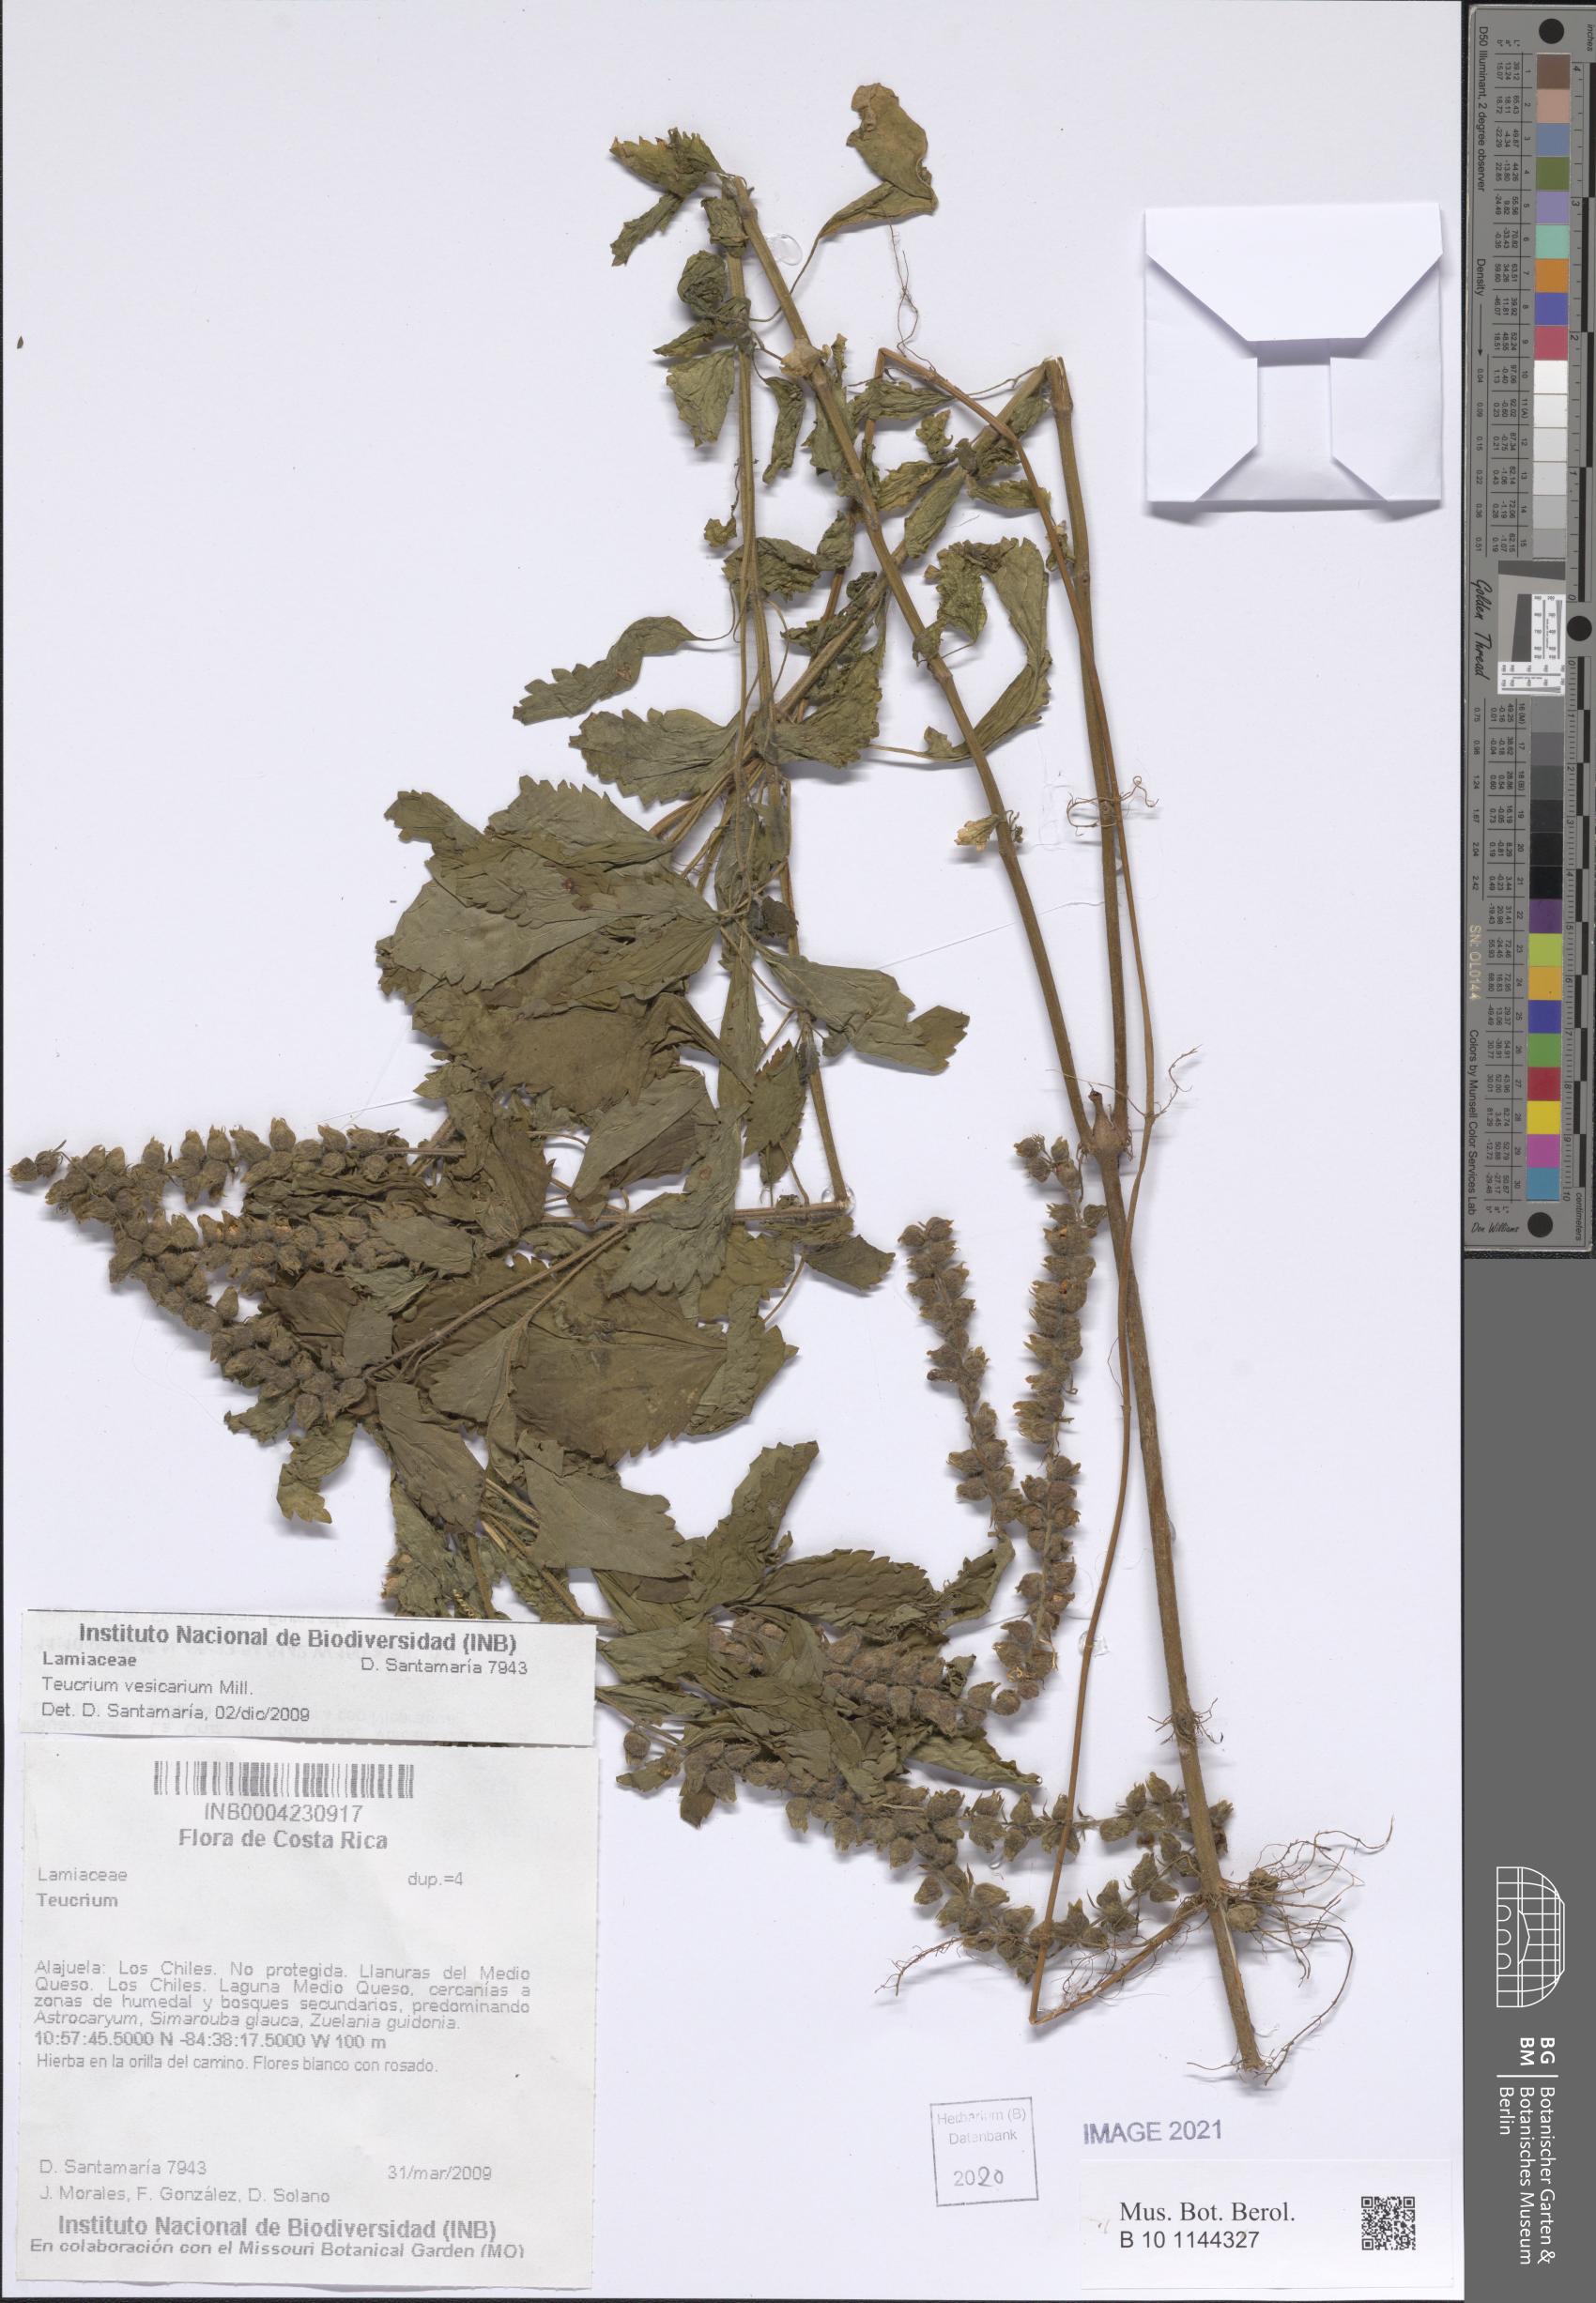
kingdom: Plantae
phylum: Tracheophyta
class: Magnoliopsida
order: Lamiales
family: Lamiaceae
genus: Teucrium
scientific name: Teucrium vesicarium
